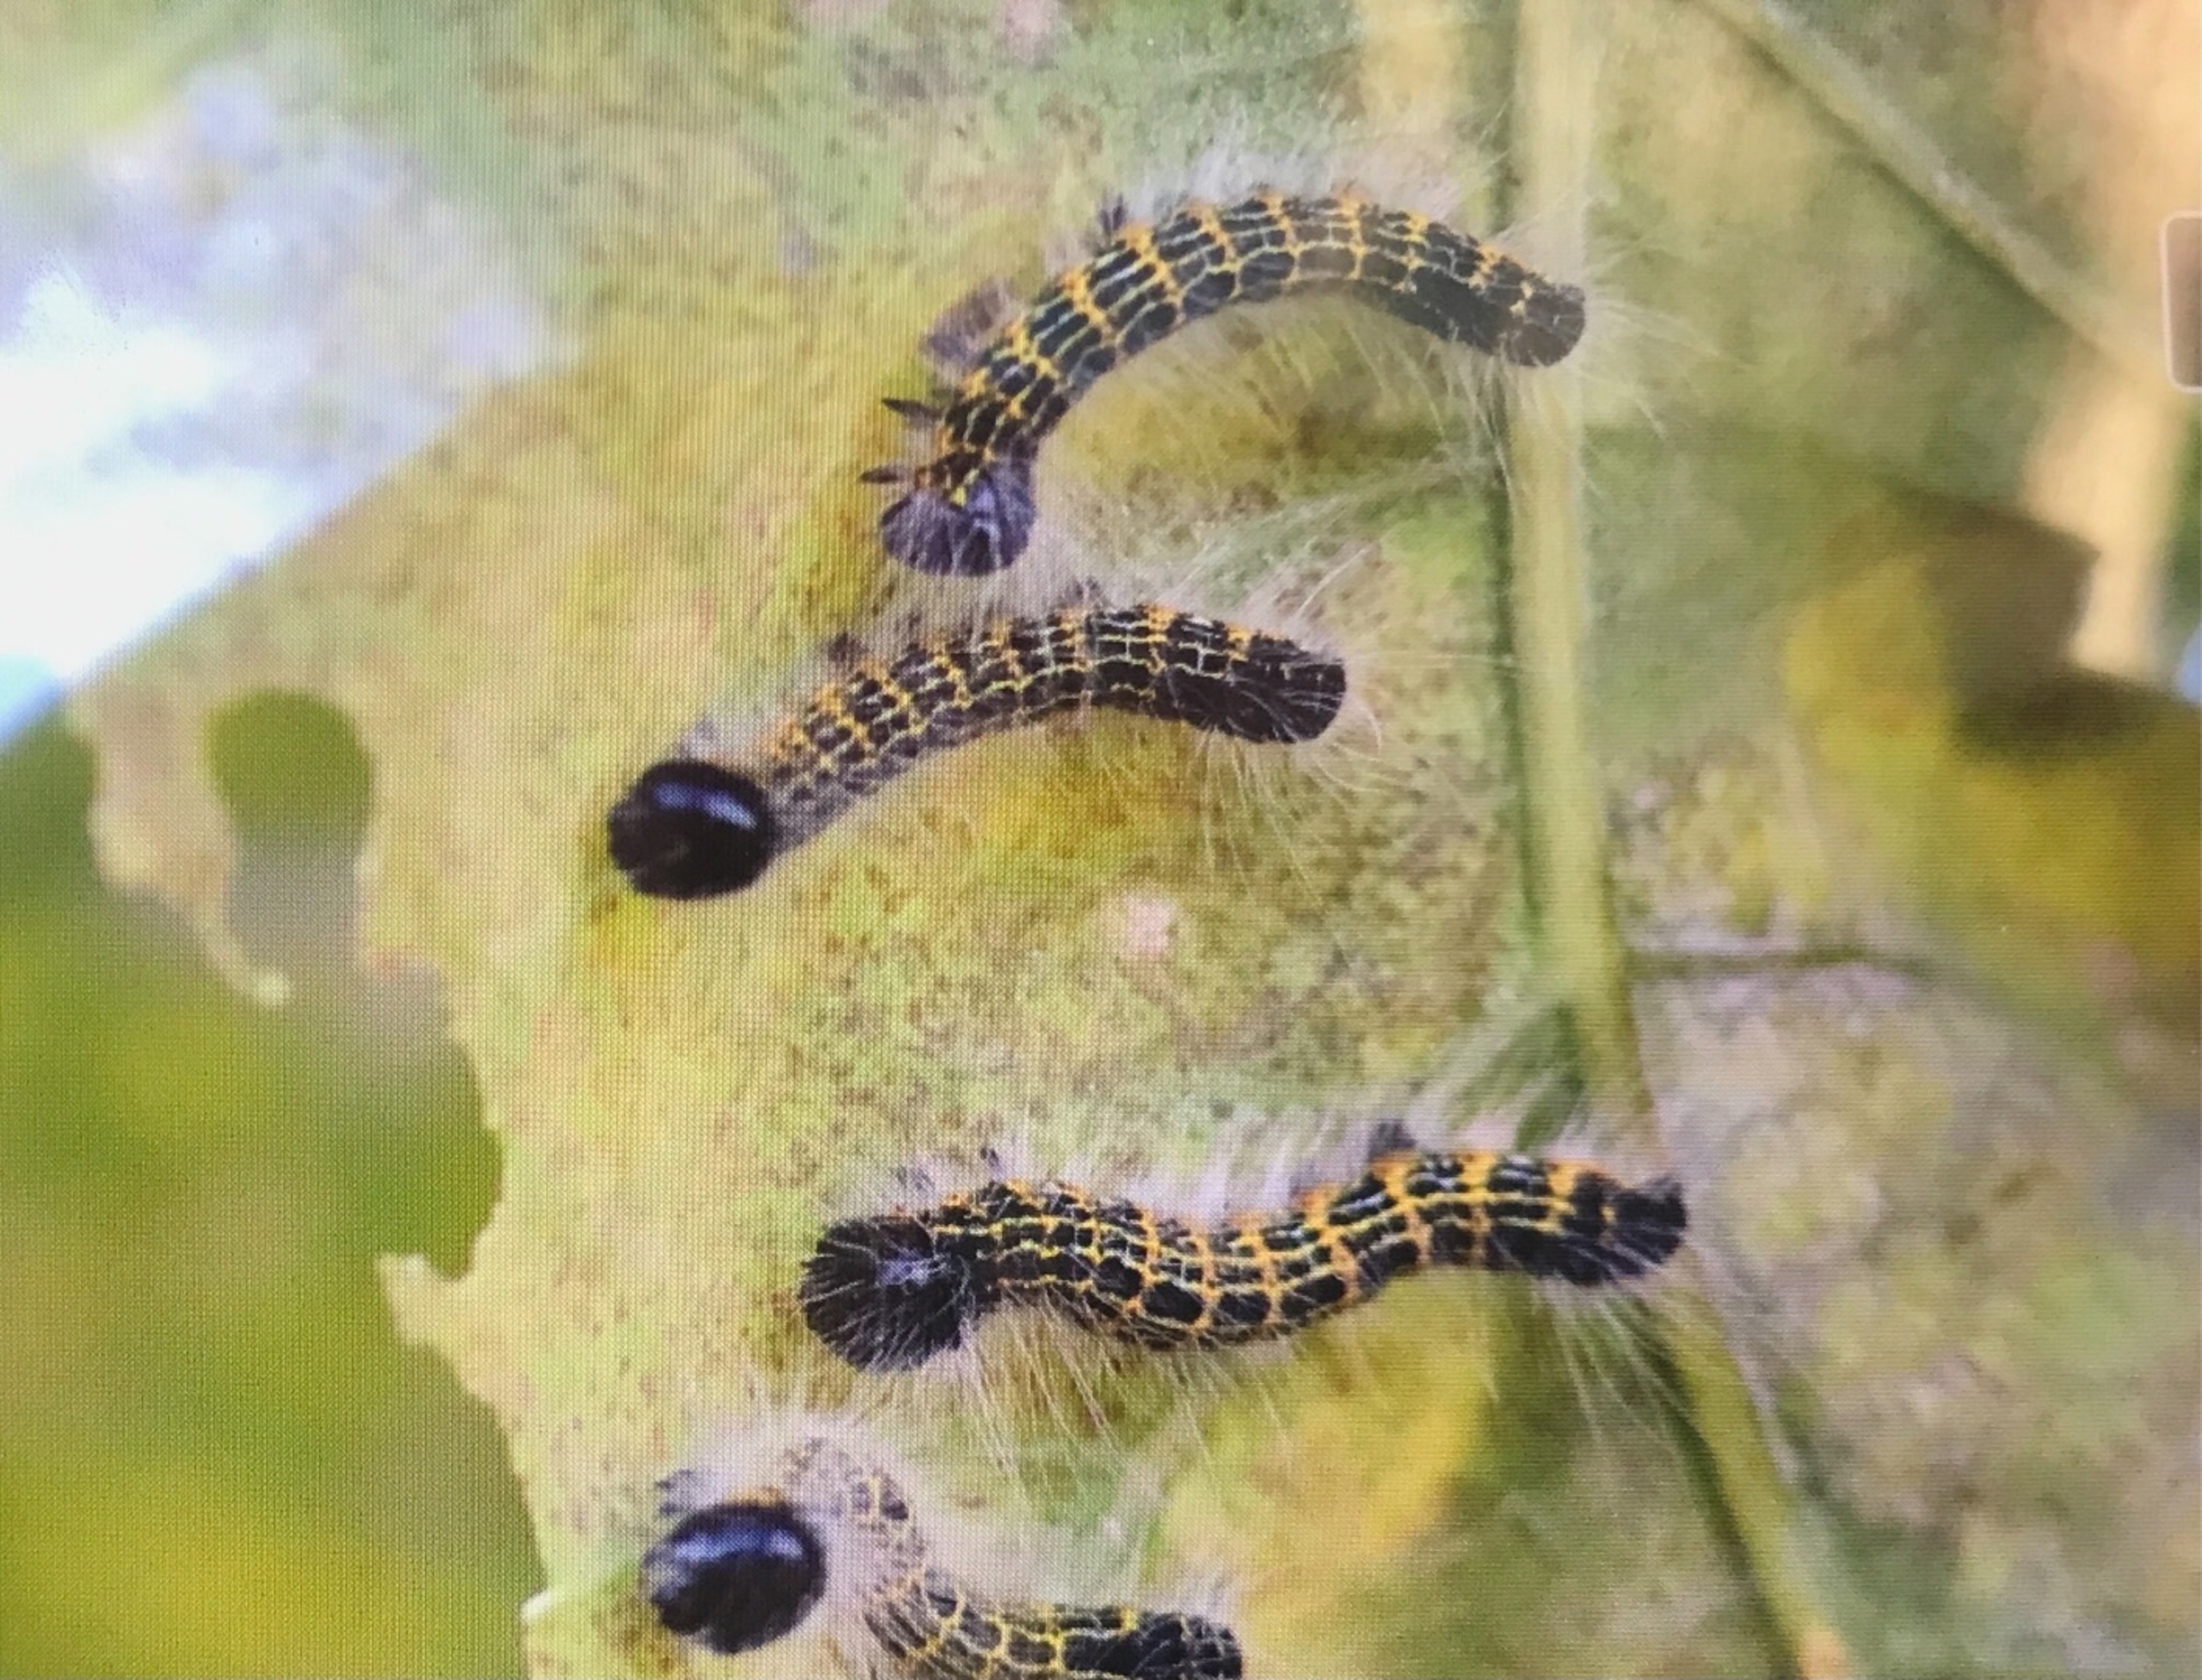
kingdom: Animalia
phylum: Arthropoda
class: Insecta
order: Lepidoptera
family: Notodontidae
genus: Phalera
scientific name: Phalera bucephala
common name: Måneplet
